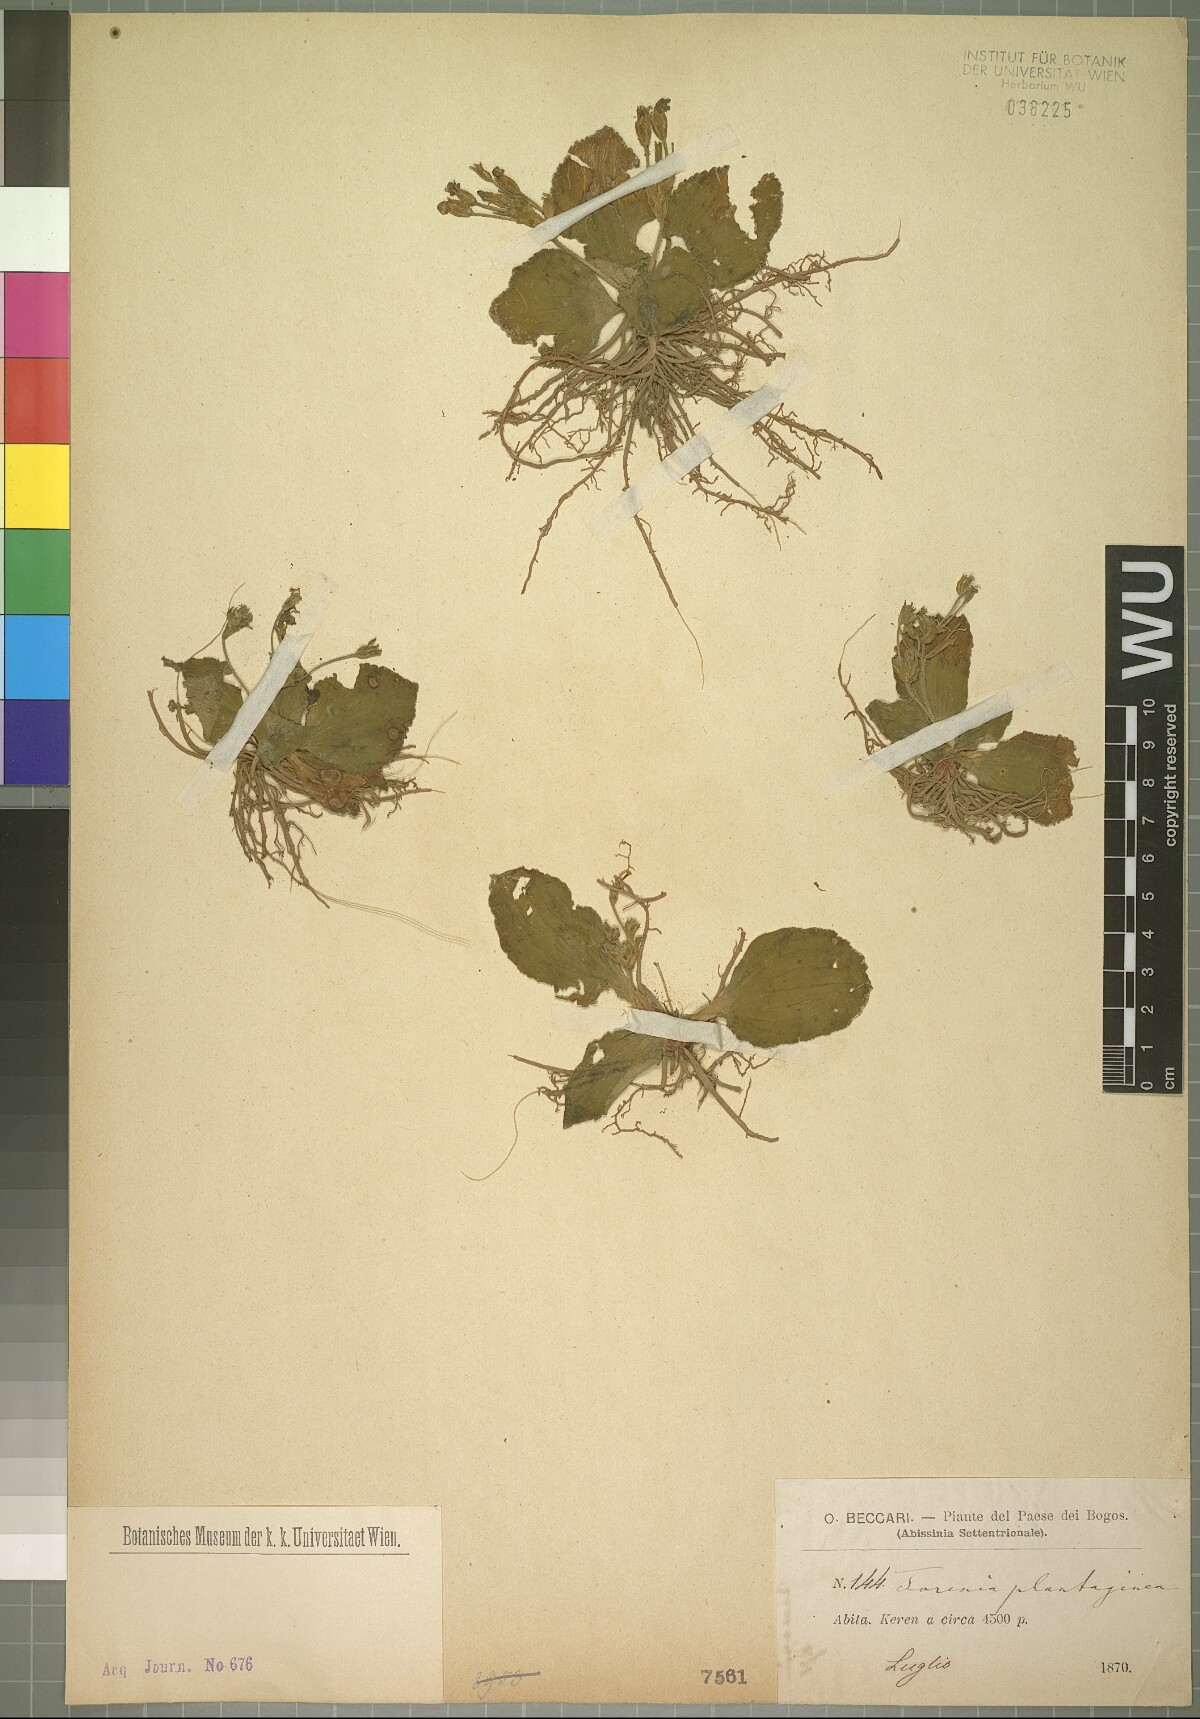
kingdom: Plantae
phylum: Tracheophyta
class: Magnoliopsida
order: Lamiales
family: Linderniaceae
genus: Craterostigma
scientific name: Craterostigma plantagineum
